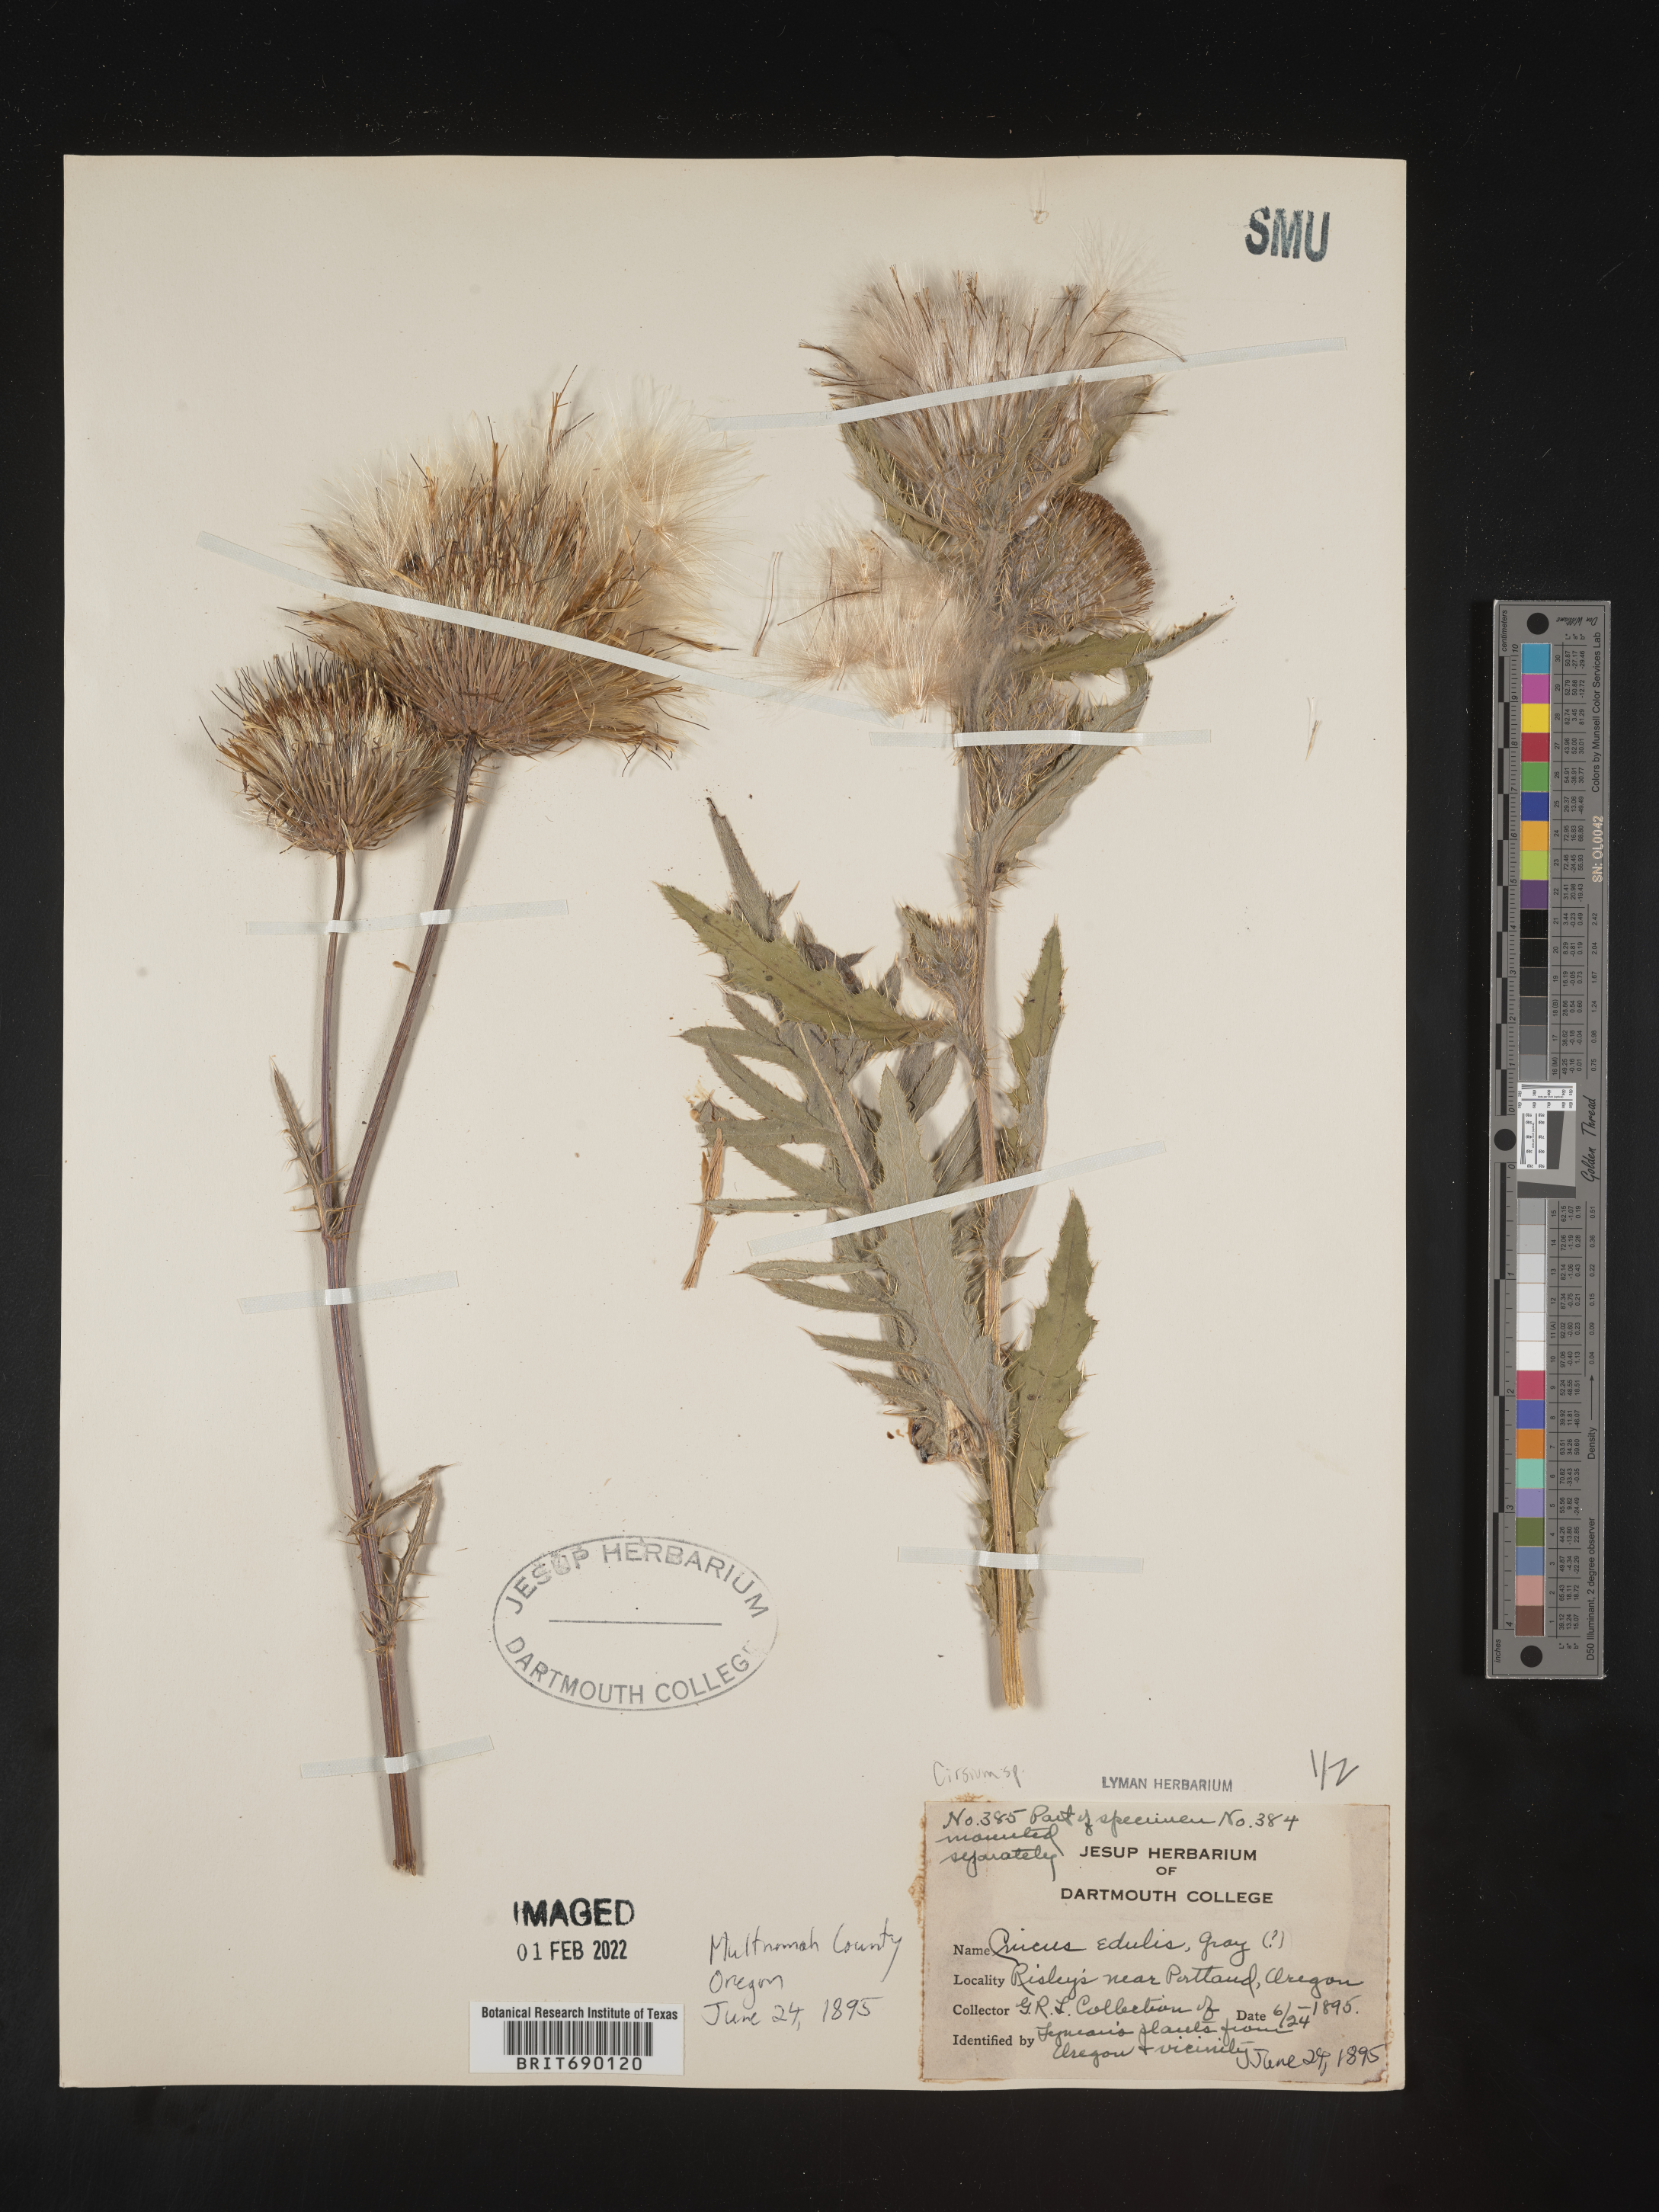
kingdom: Plantae
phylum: Tracheophyta
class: Magnoliopsida
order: Asterales
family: Asteraceae
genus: Cirsium
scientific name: Cirsium
